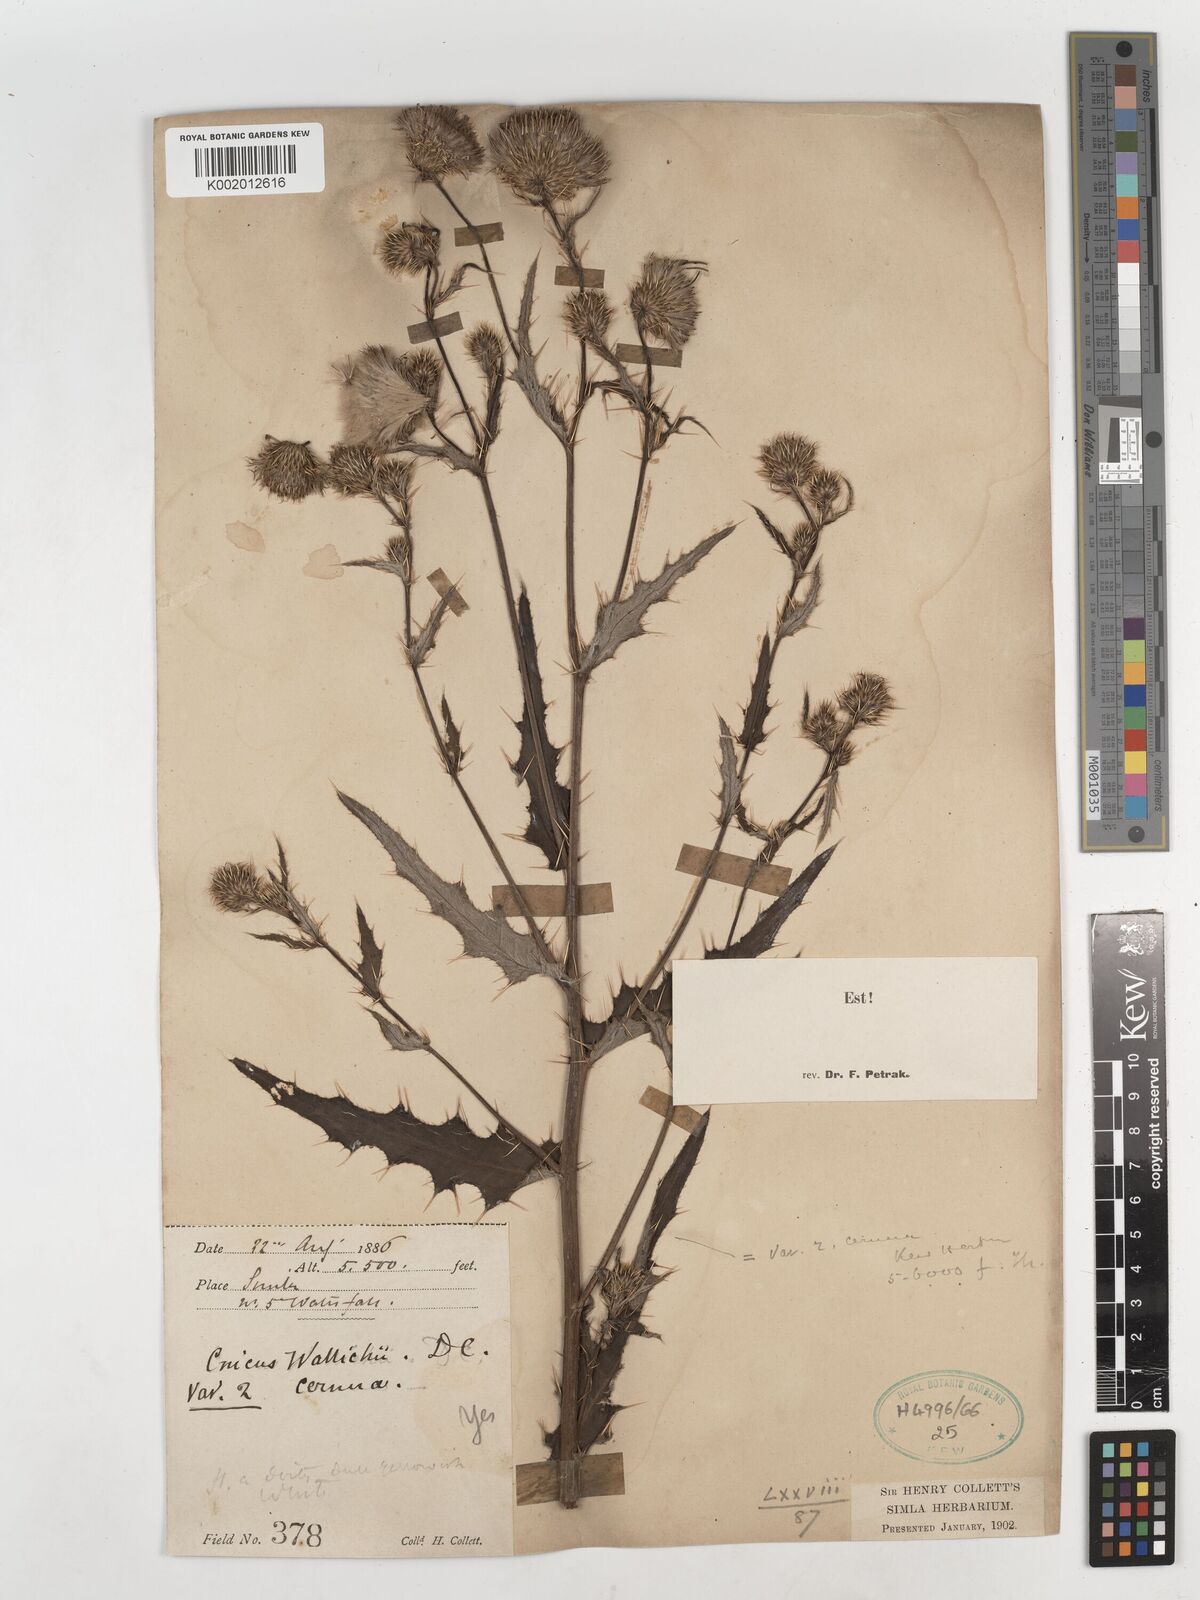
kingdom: Plantae
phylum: Tracheophyta
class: Magnoliopsida
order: Asterales
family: Asteraceae
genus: Cirsium
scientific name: Cirsium wallichii
